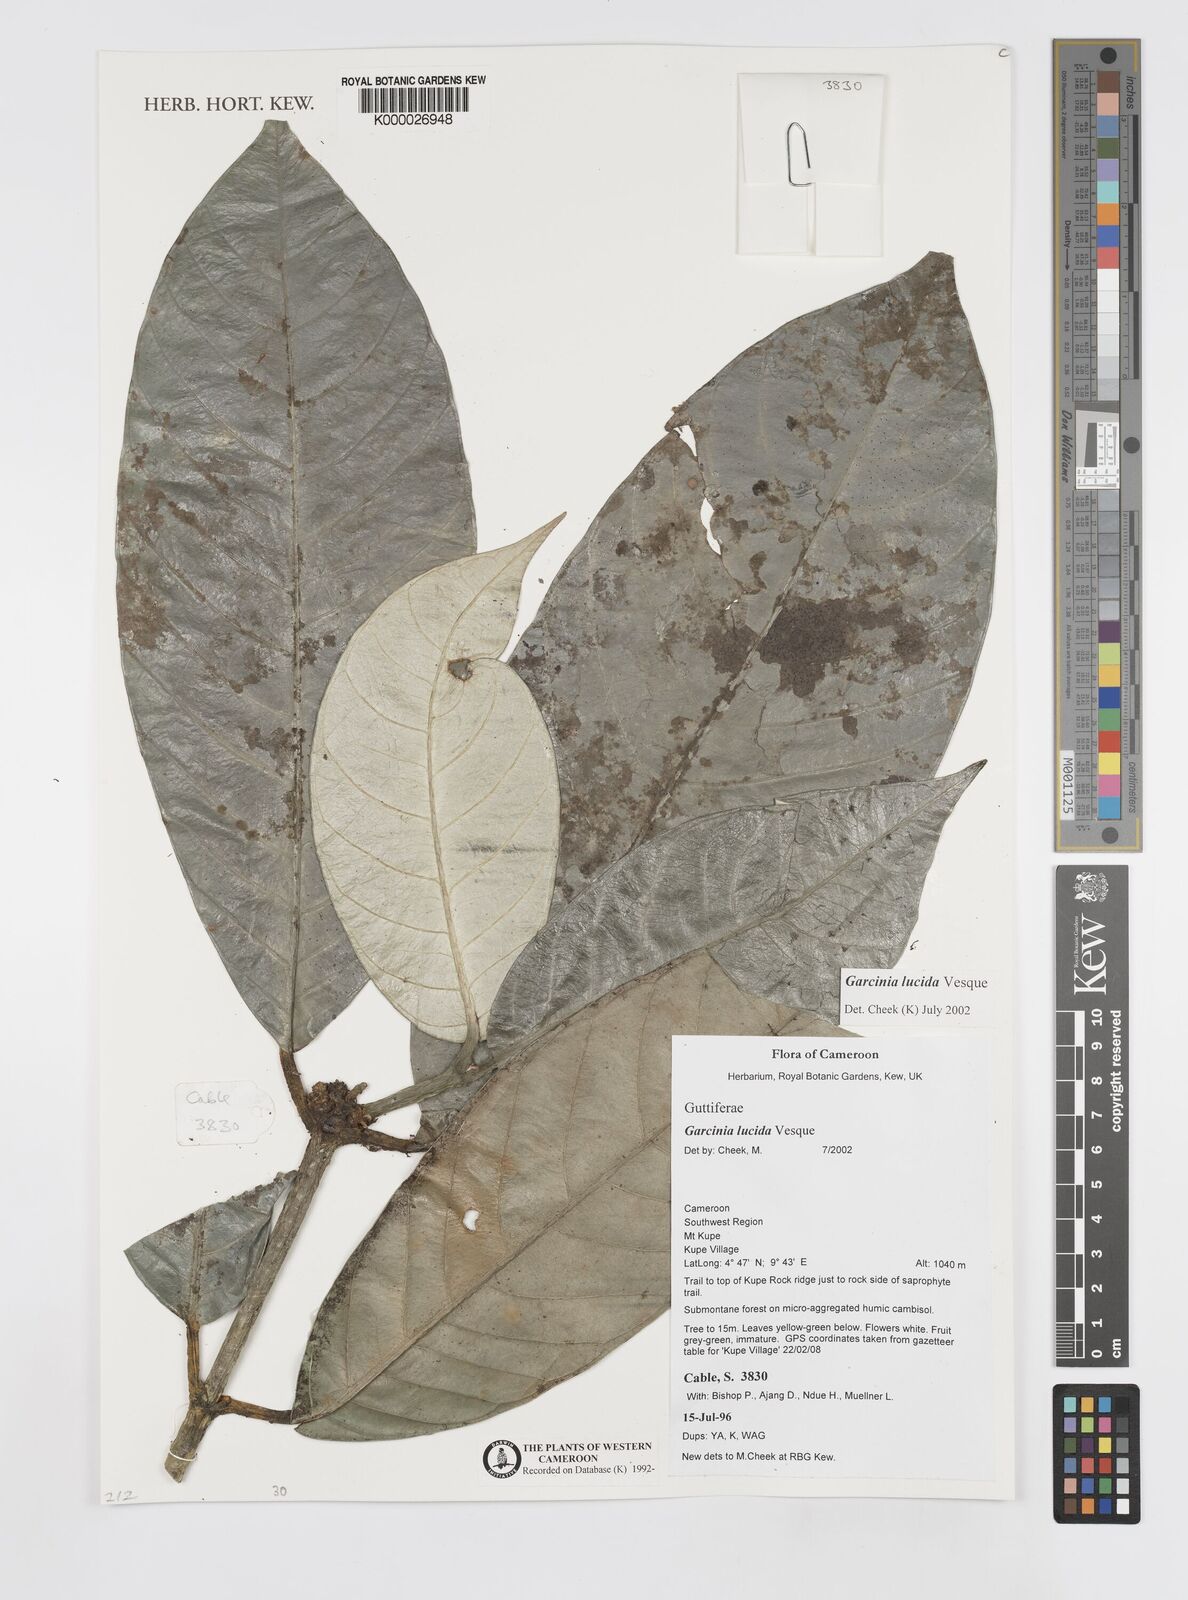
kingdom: Plantae
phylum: Tracheophyta
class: Magnoliopsida
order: Malpighiales
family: Clusiaceae
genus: Garcinia
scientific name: Garcinia lucida
